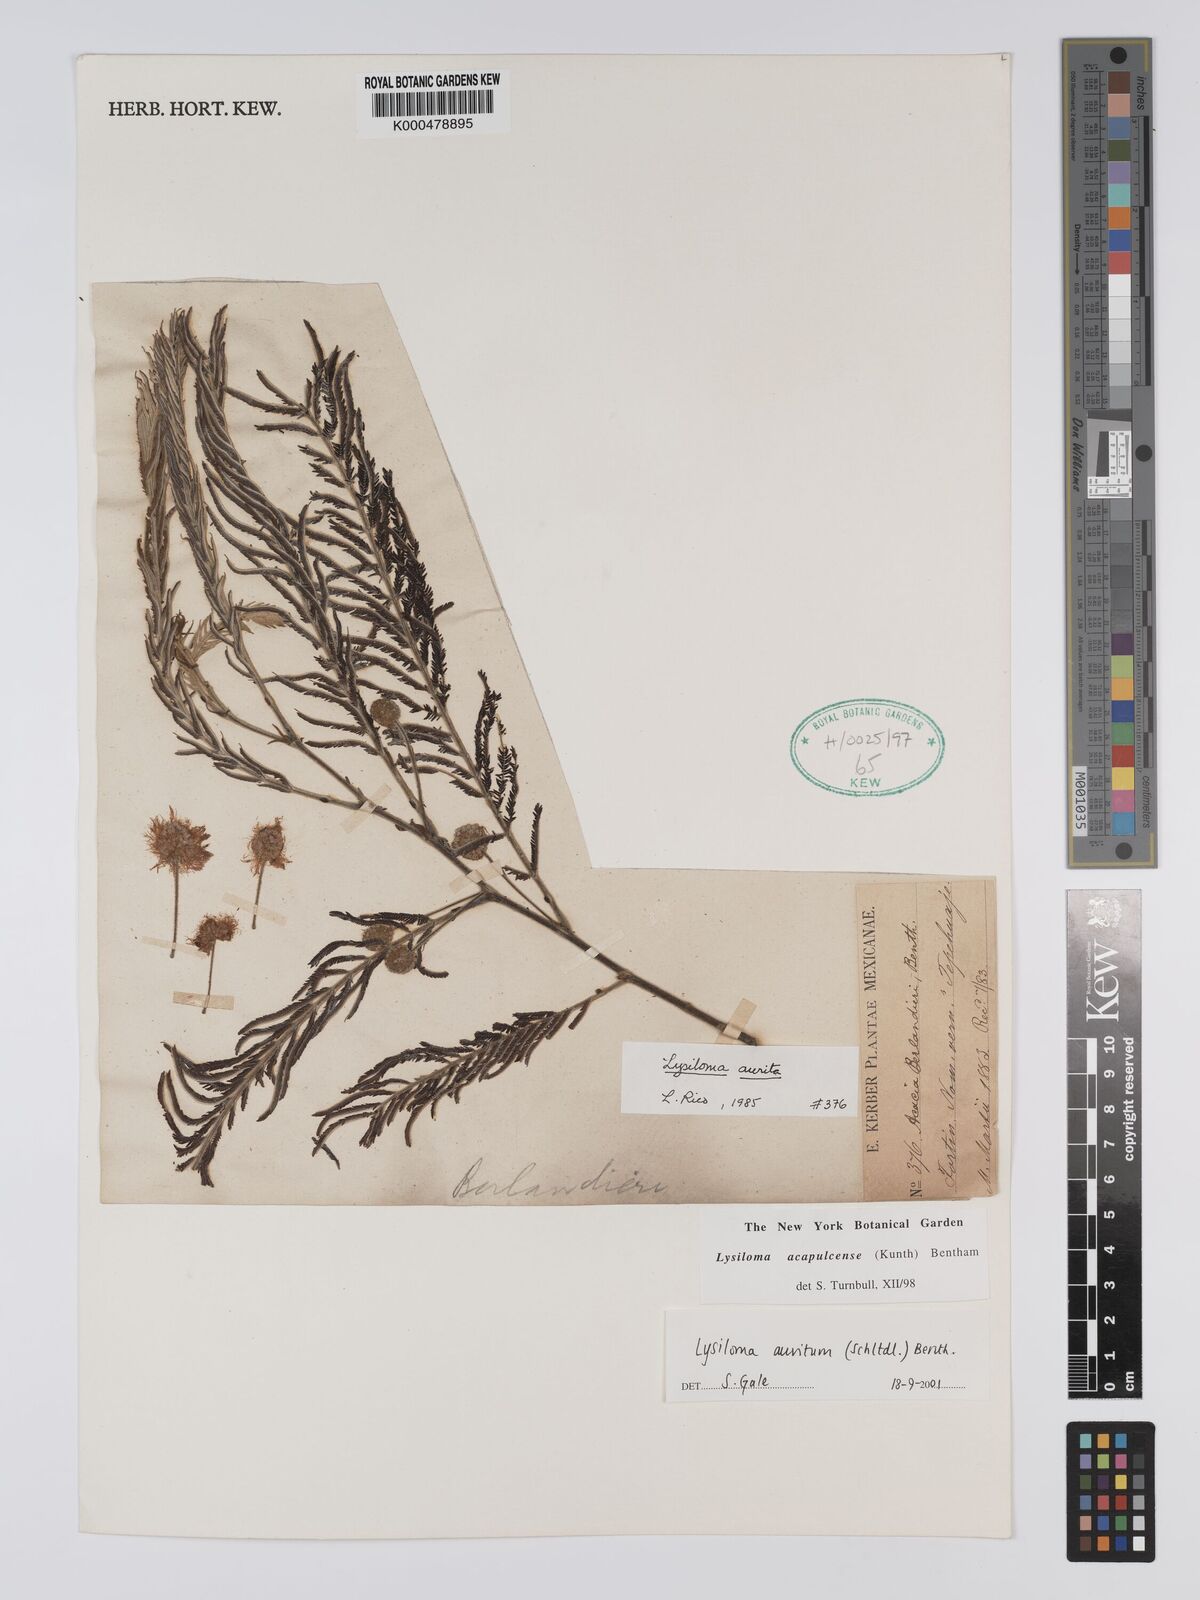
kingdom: Plantae
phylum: Tracheophyta
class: Magnoliopsida
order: Fabales
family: Fabaceae
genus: Lysiloma
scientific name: Lysiloma auritum
